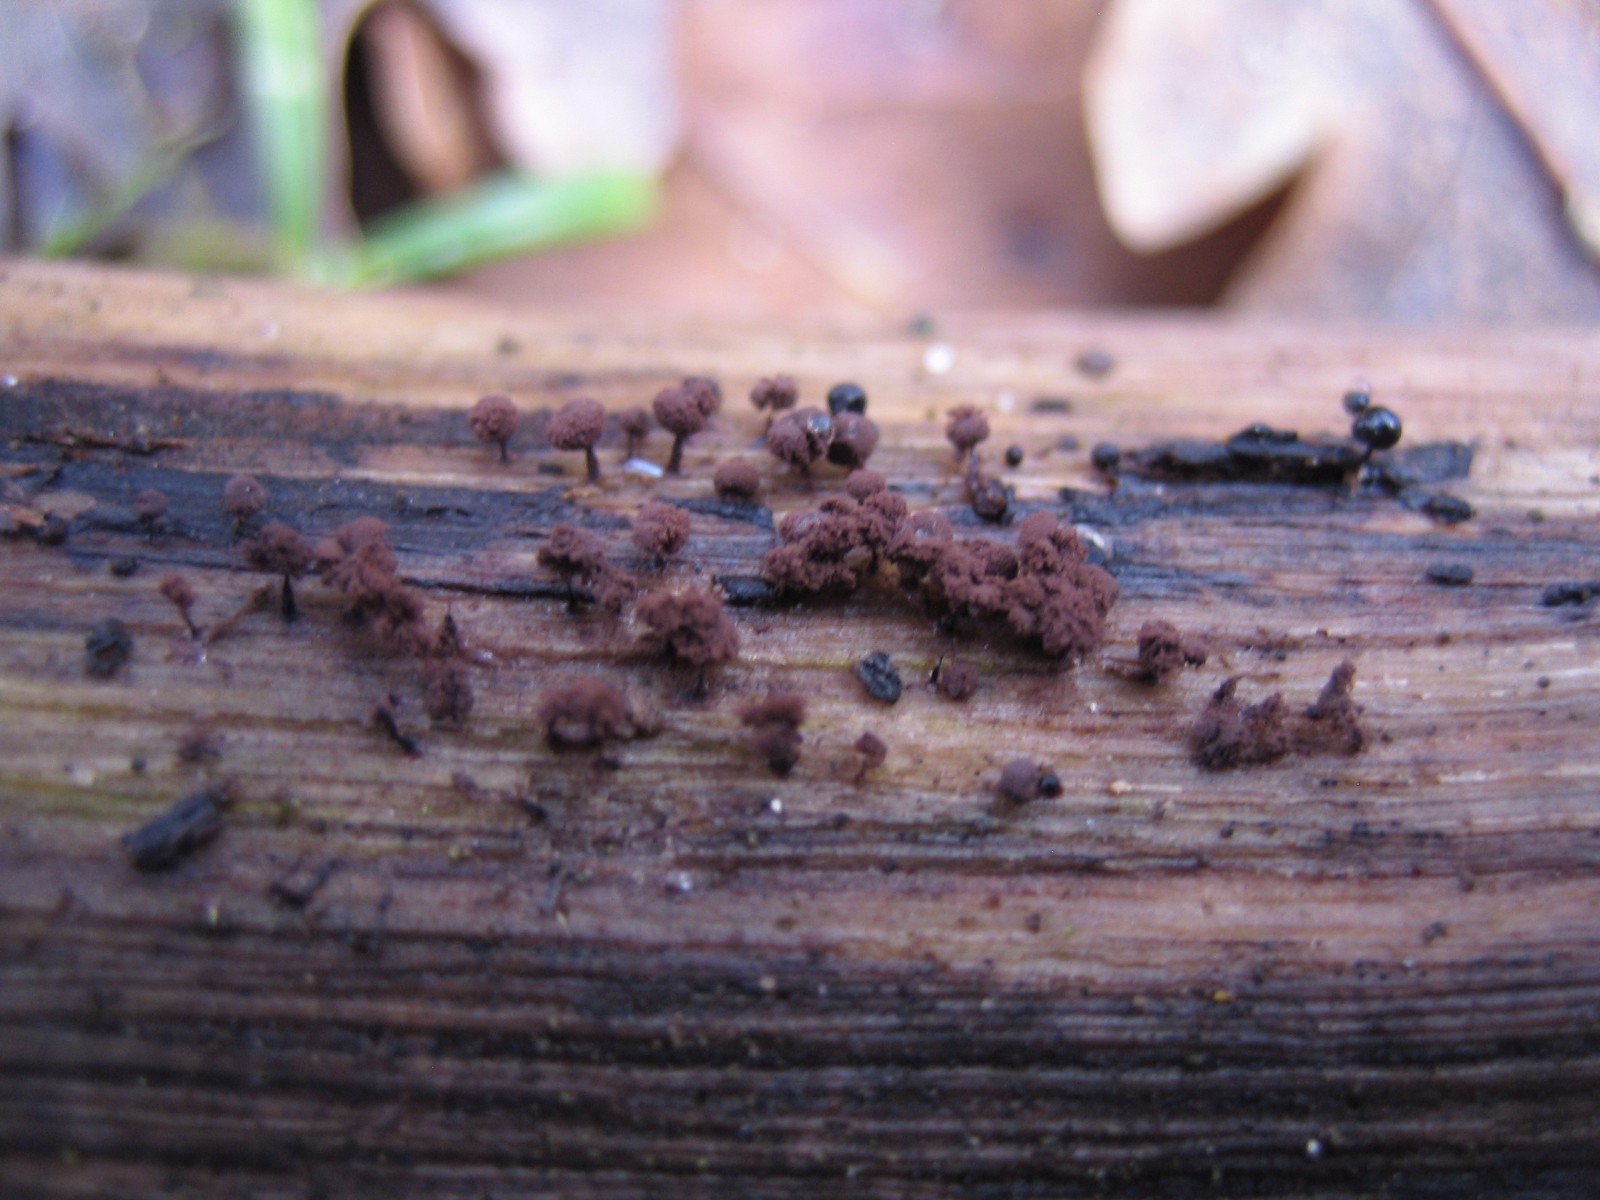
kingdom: Protozoa
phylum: Mycetozoa
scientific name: Mycetozoa
